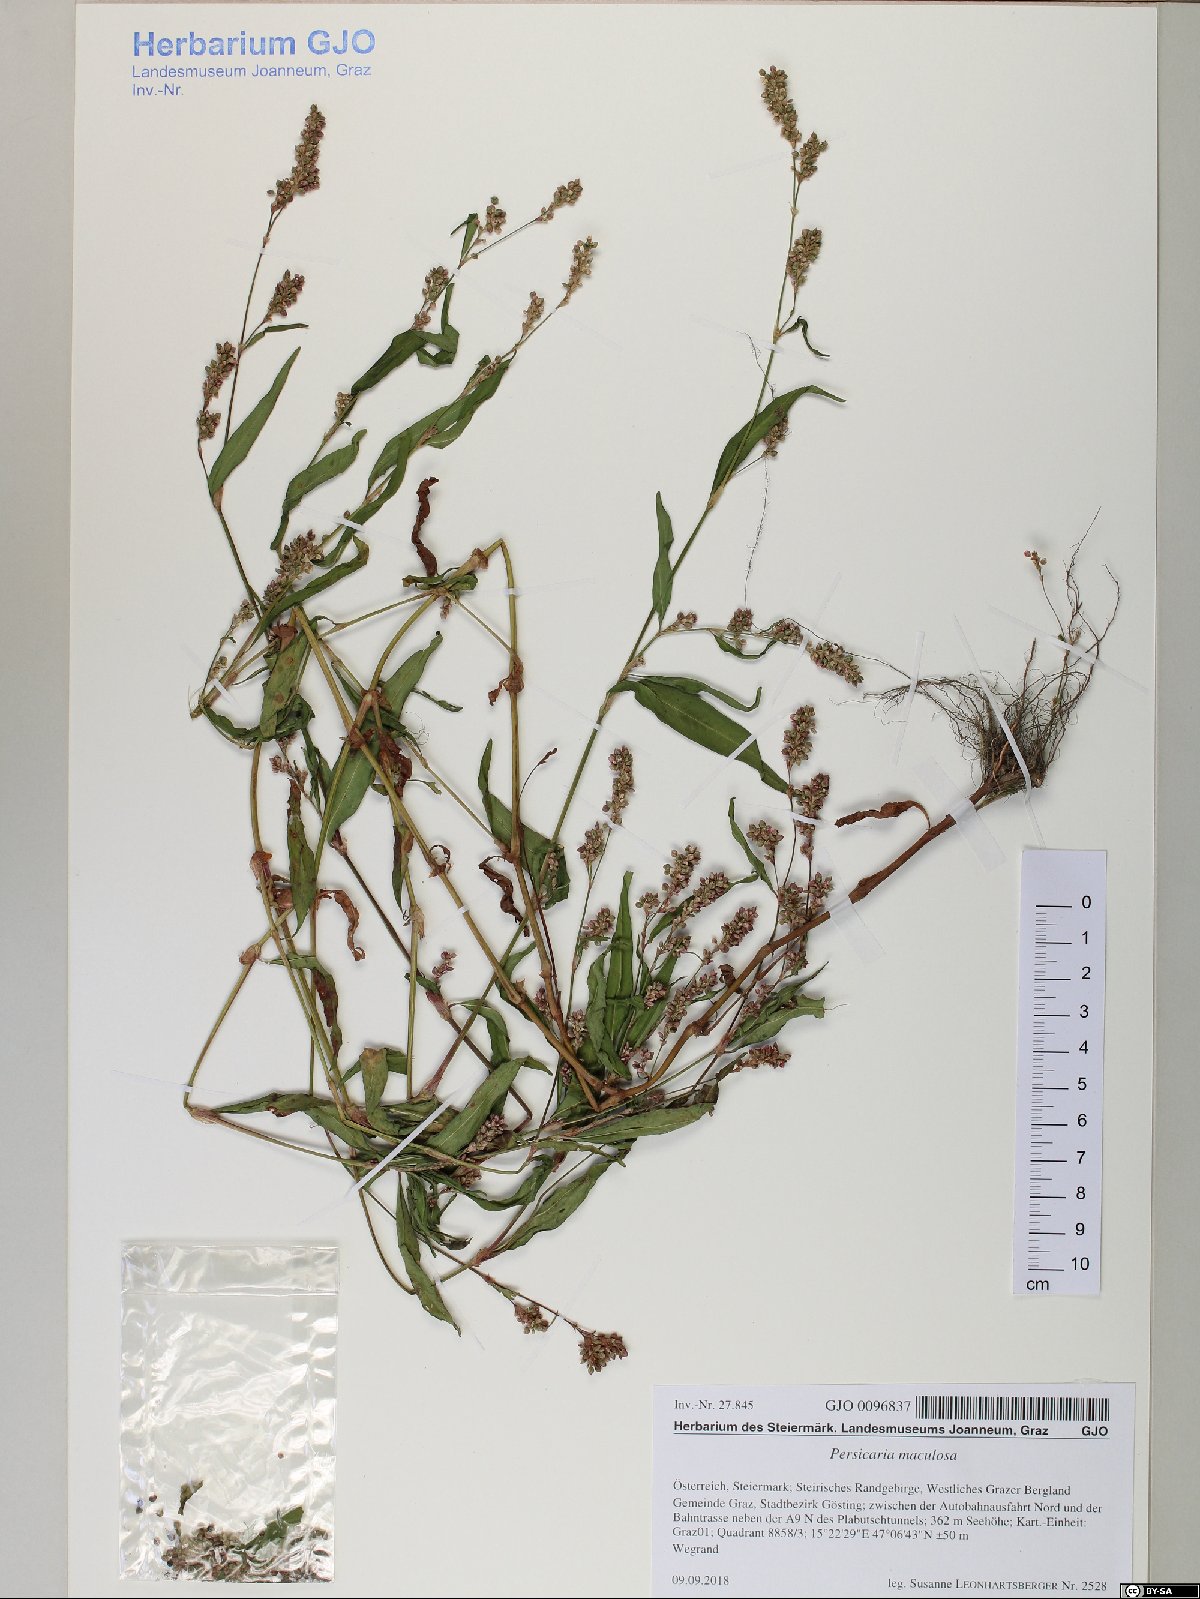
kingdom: Plantae
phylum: Tracheophyta
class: Magnoliopsida
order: Caryophyllales
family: Polygonaceae
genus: Persicaria
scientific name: Persicaria maculosa
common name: Redshank
